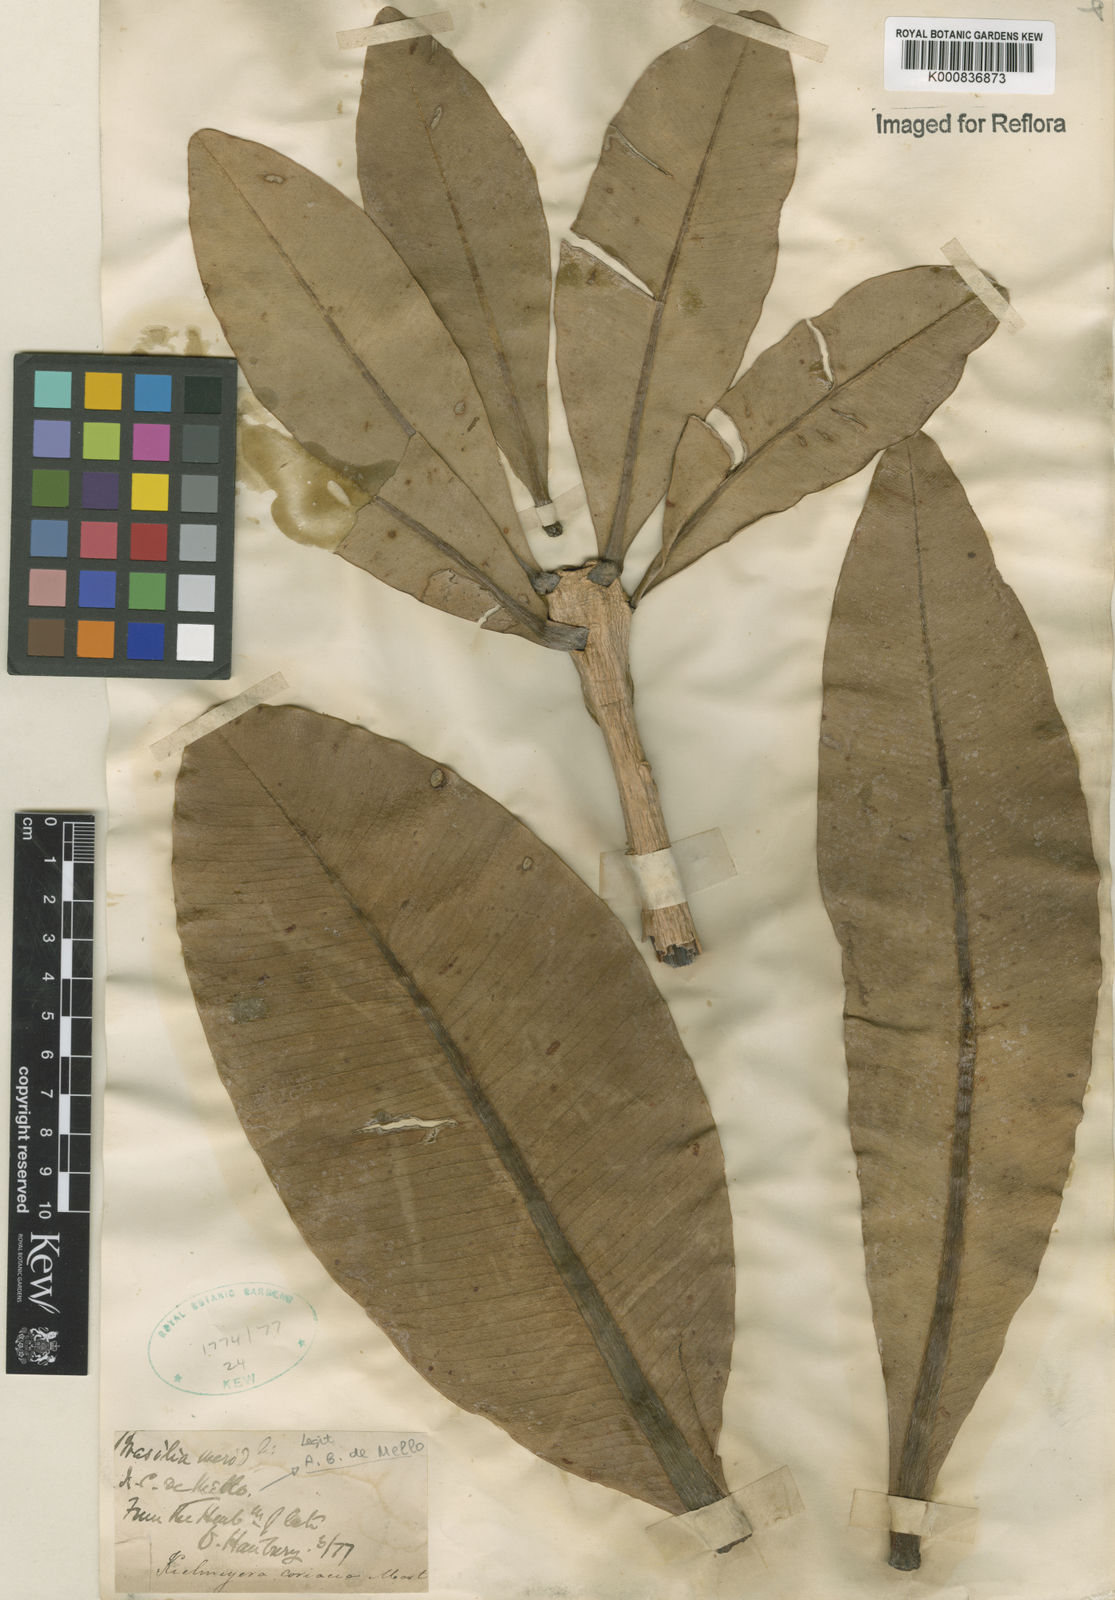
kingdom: Plantae
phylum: Tracheophyta
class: Magnoliopsida
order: Malpighiales
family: Calophyllaceae
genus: Kielmeyera
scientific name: Kielmeyera coriacea
